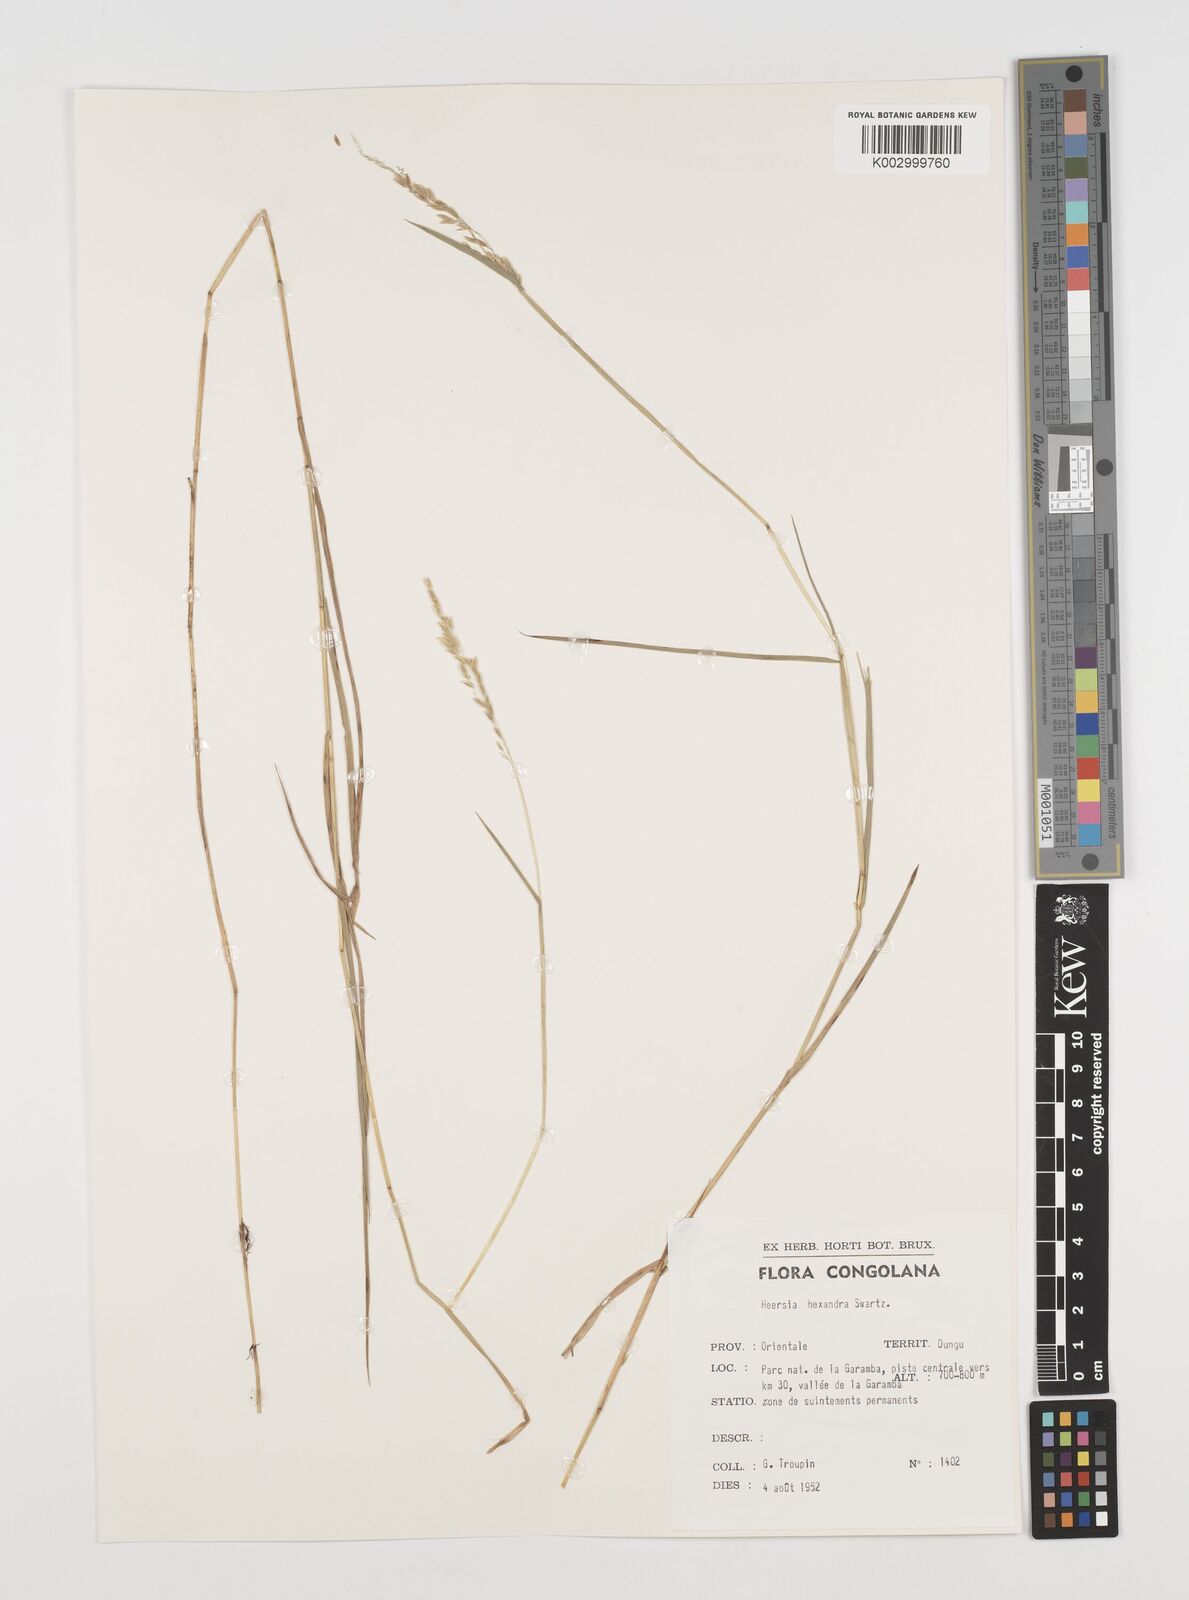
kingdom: Plantae
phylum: Tracheophyta
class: Liliopsida
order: Poales
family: Poaceae
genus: Leersia
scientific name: Leersia hexandra
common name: Southern cut grass
